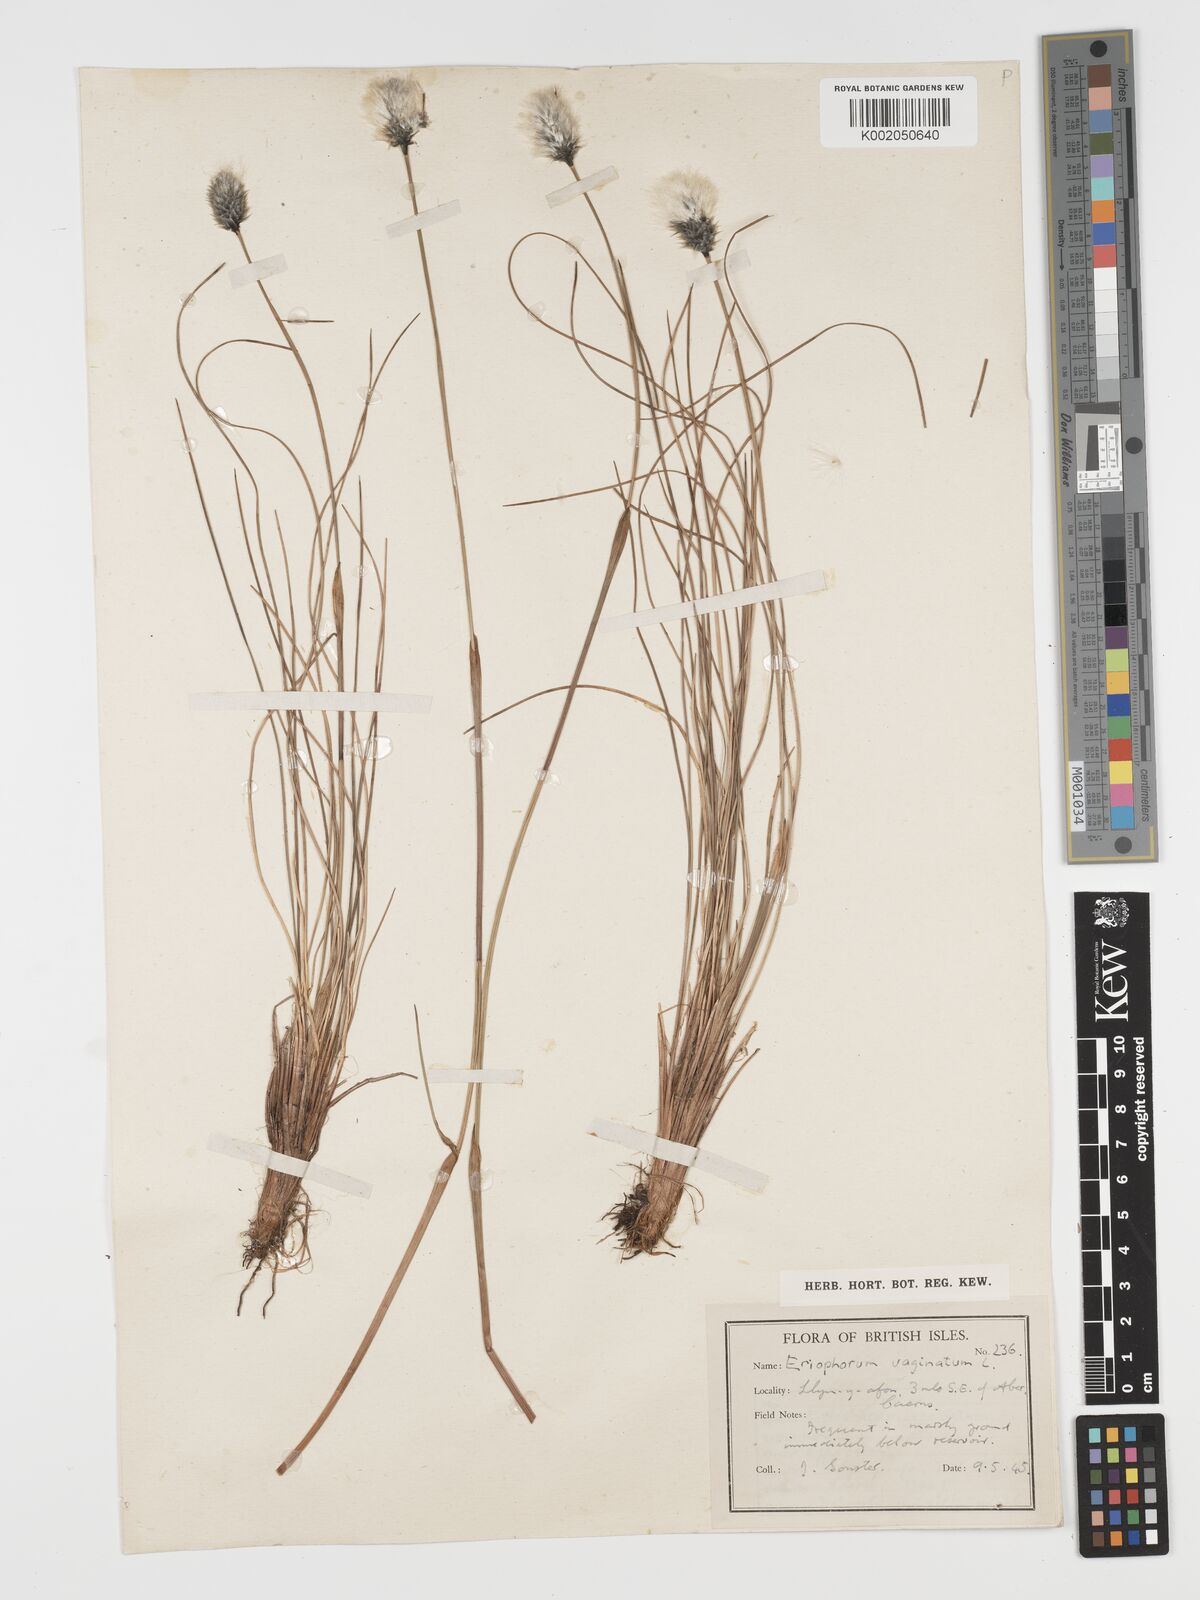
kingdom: Plantae
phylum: Tracheophyta
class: Liliopsida
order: Poales
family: Cyperaceae
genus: Eriophorum
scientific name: Eriophorum vaginatum
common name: Hare's-tail cottongrass
